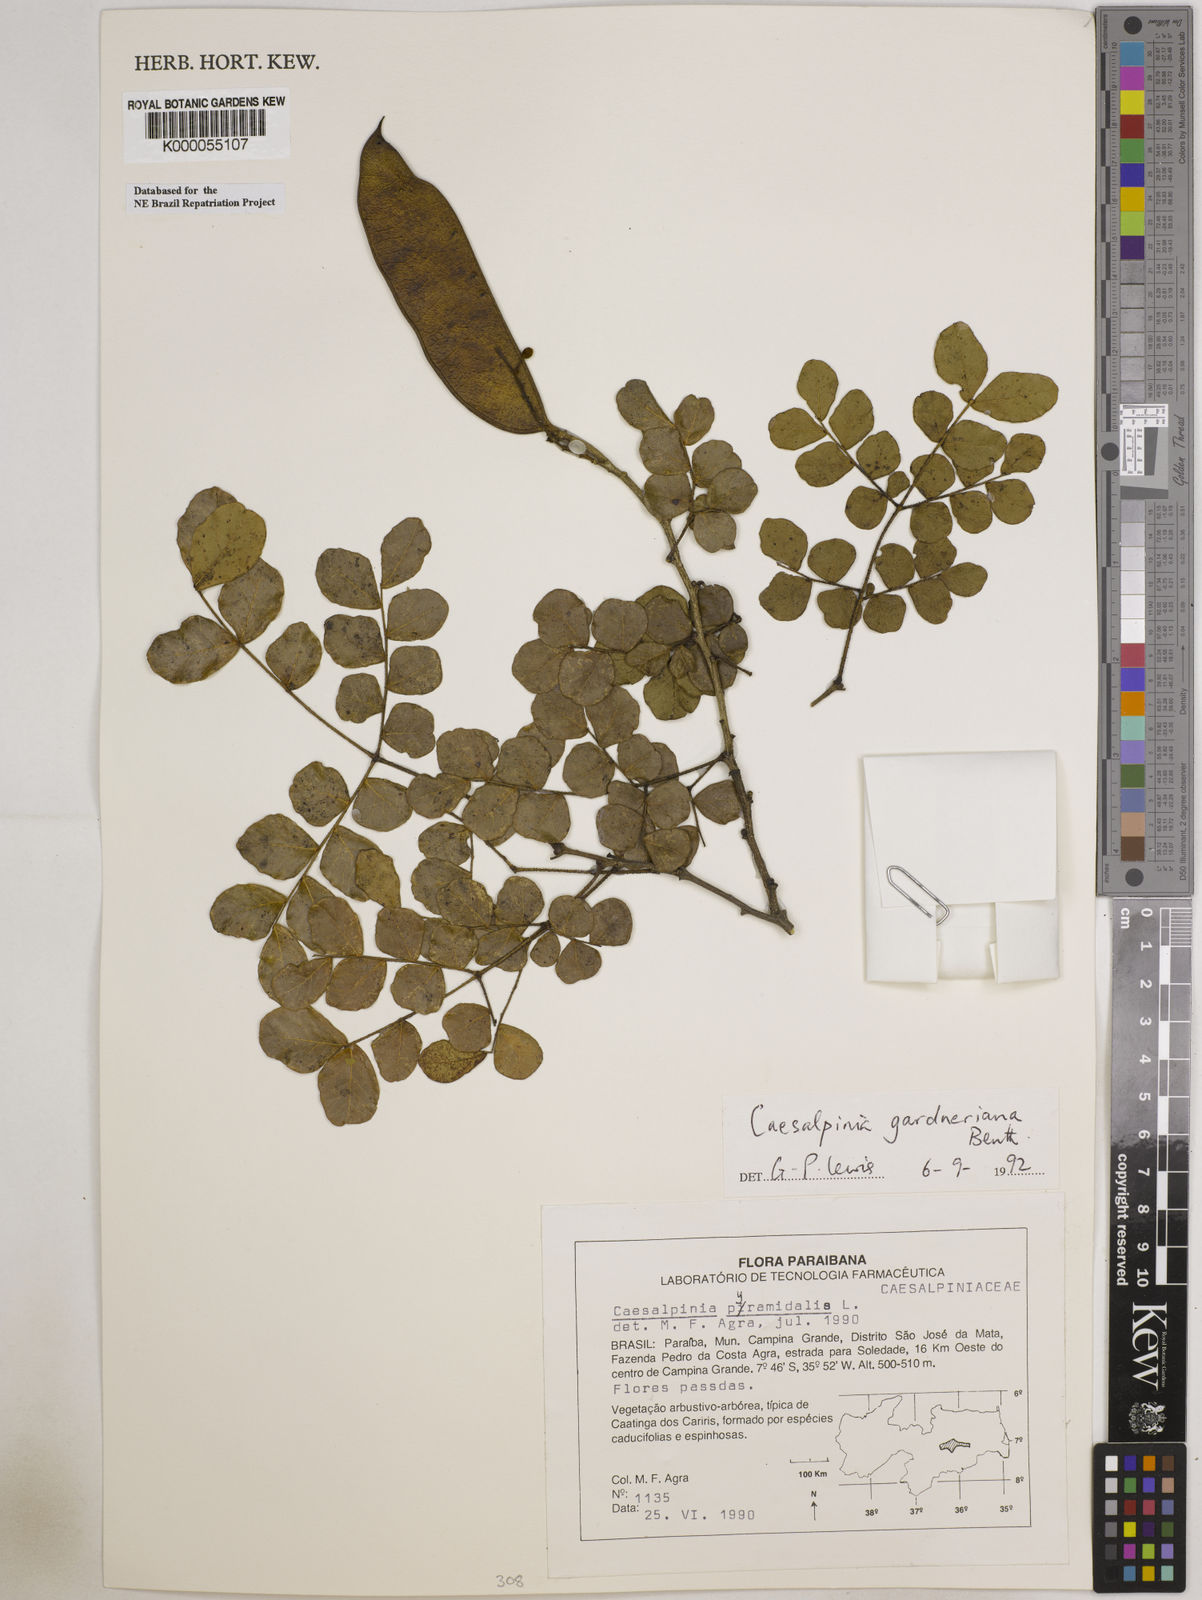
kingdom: Plantae
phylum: Tracheophyta
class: Magnoliopsida
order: Fabales
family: Fabaceae
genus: Cenostigma
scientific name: Cenostigma nordestinum
